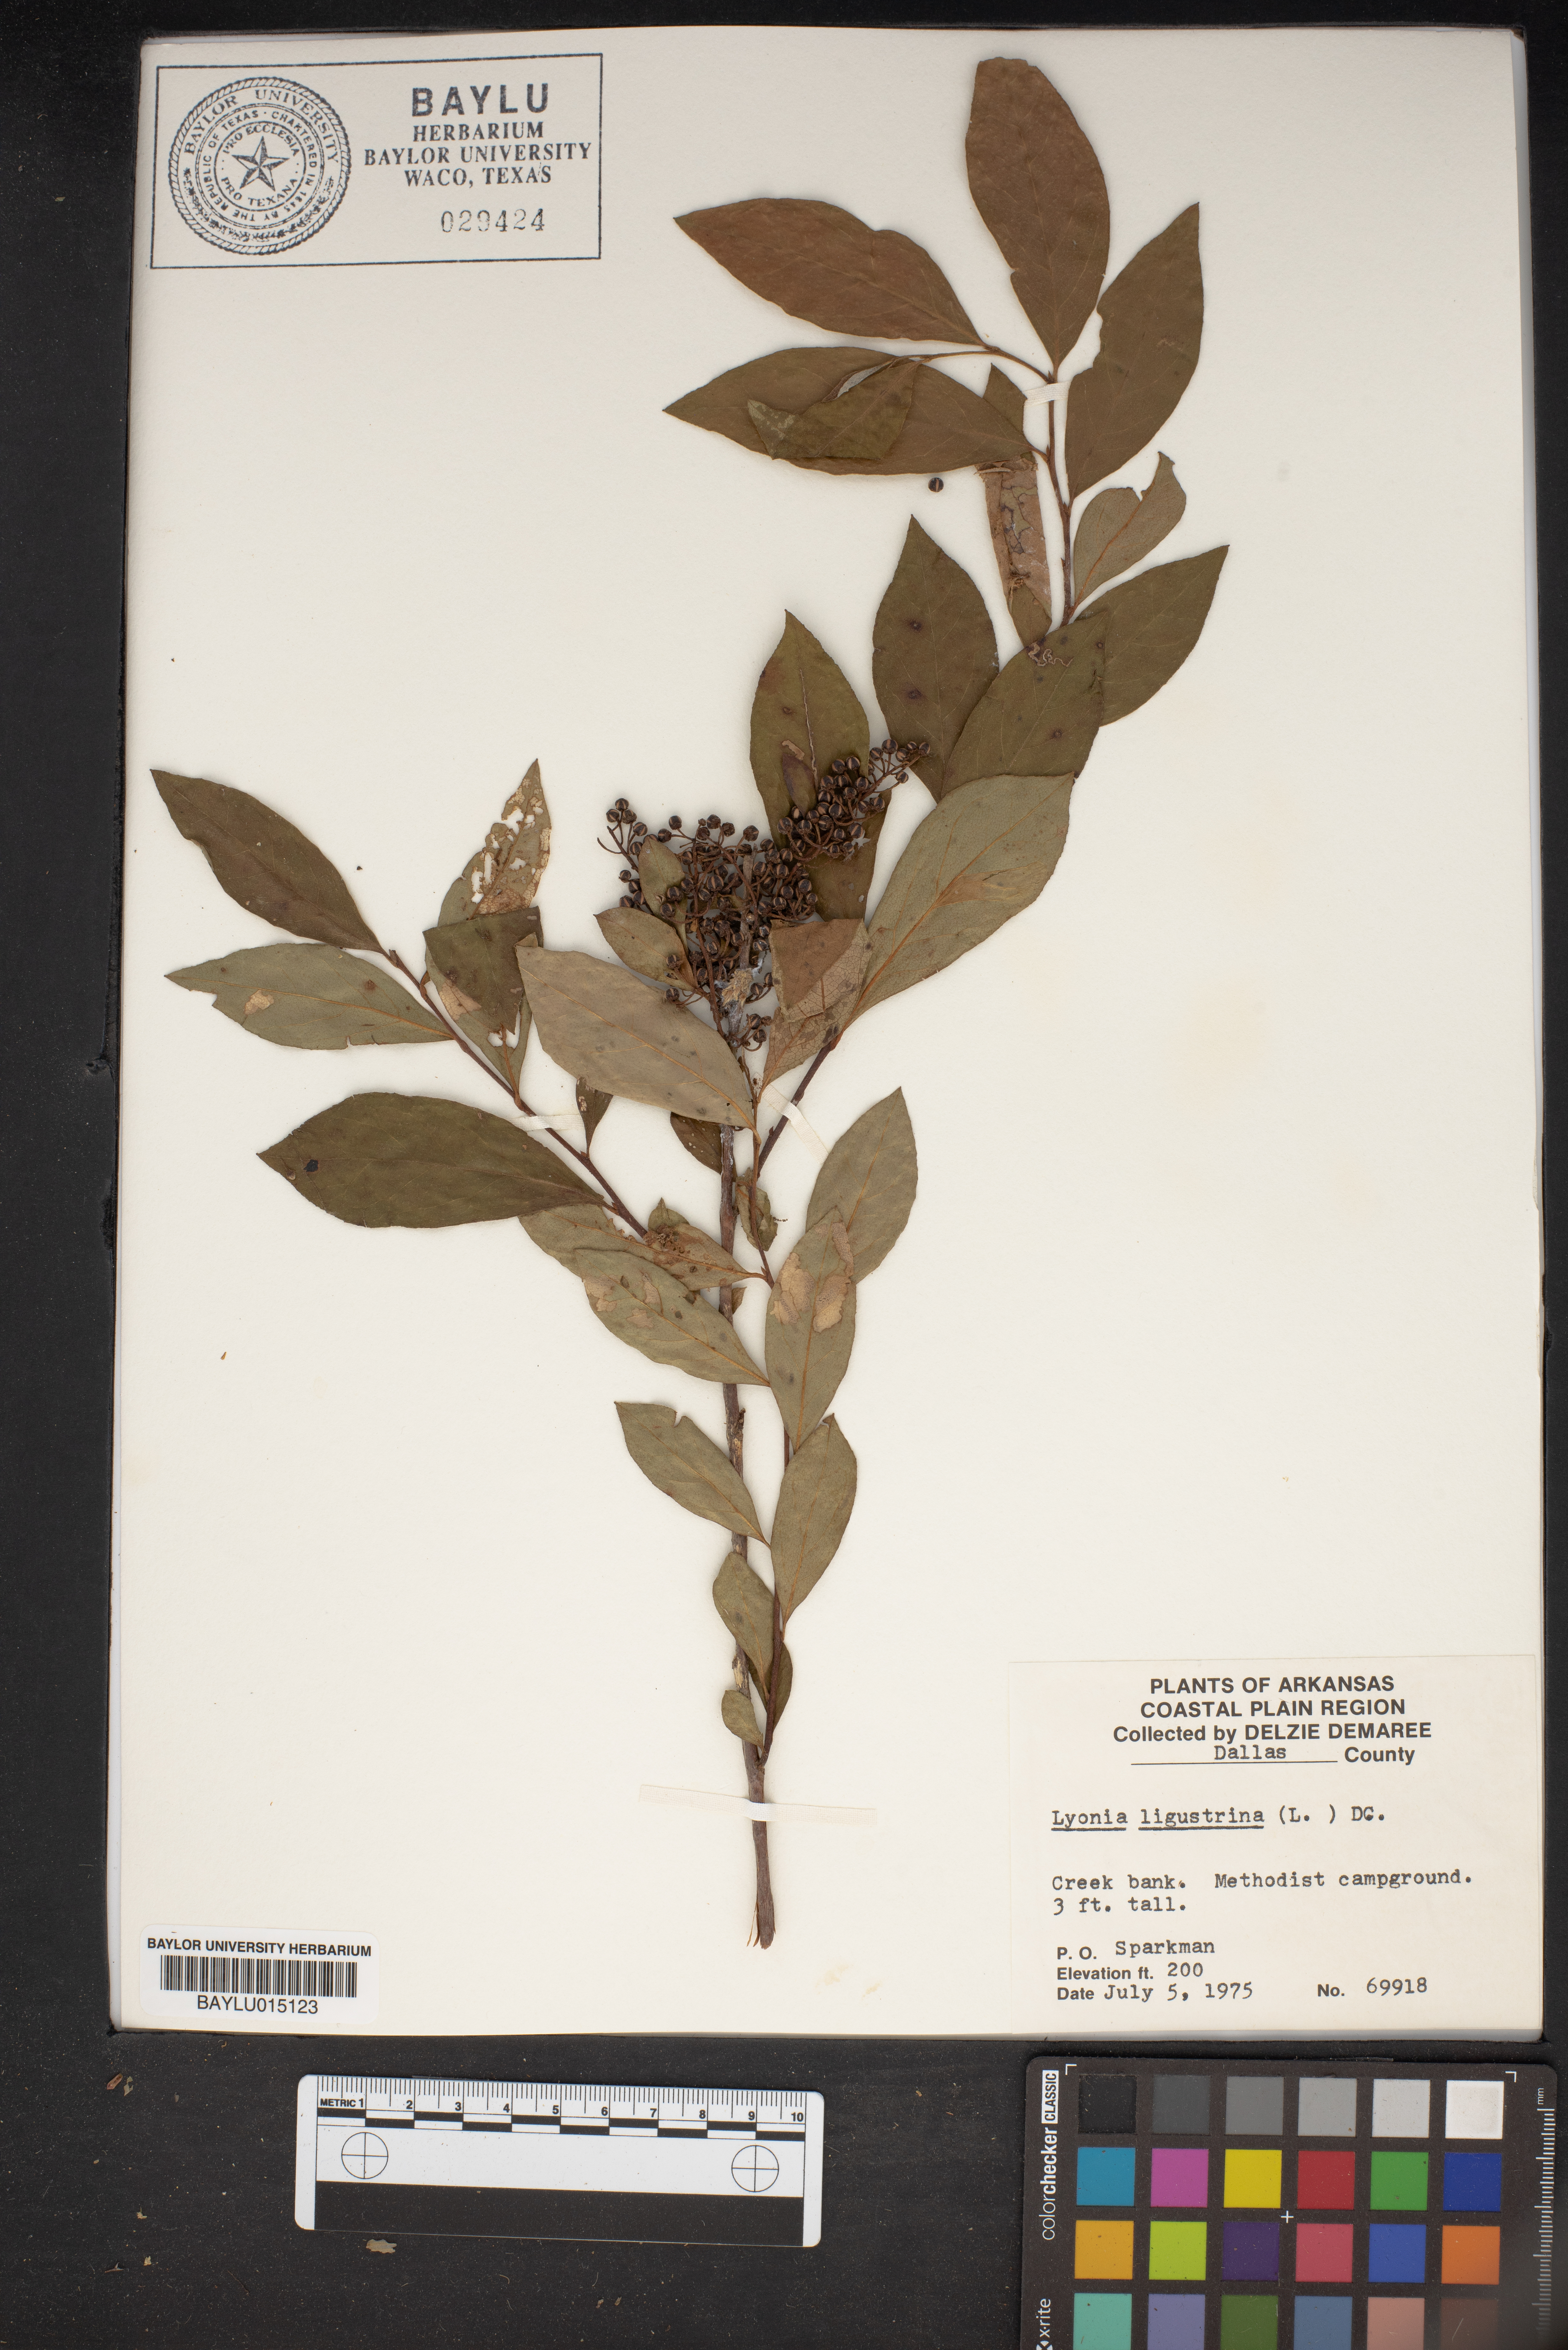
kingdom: Plantae
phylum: Tracheophyta
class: Magnoliopsida
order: Ericales
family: Ericaceae
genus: Lyonia
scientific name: Lyonia ligustrina
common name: Maleberry
